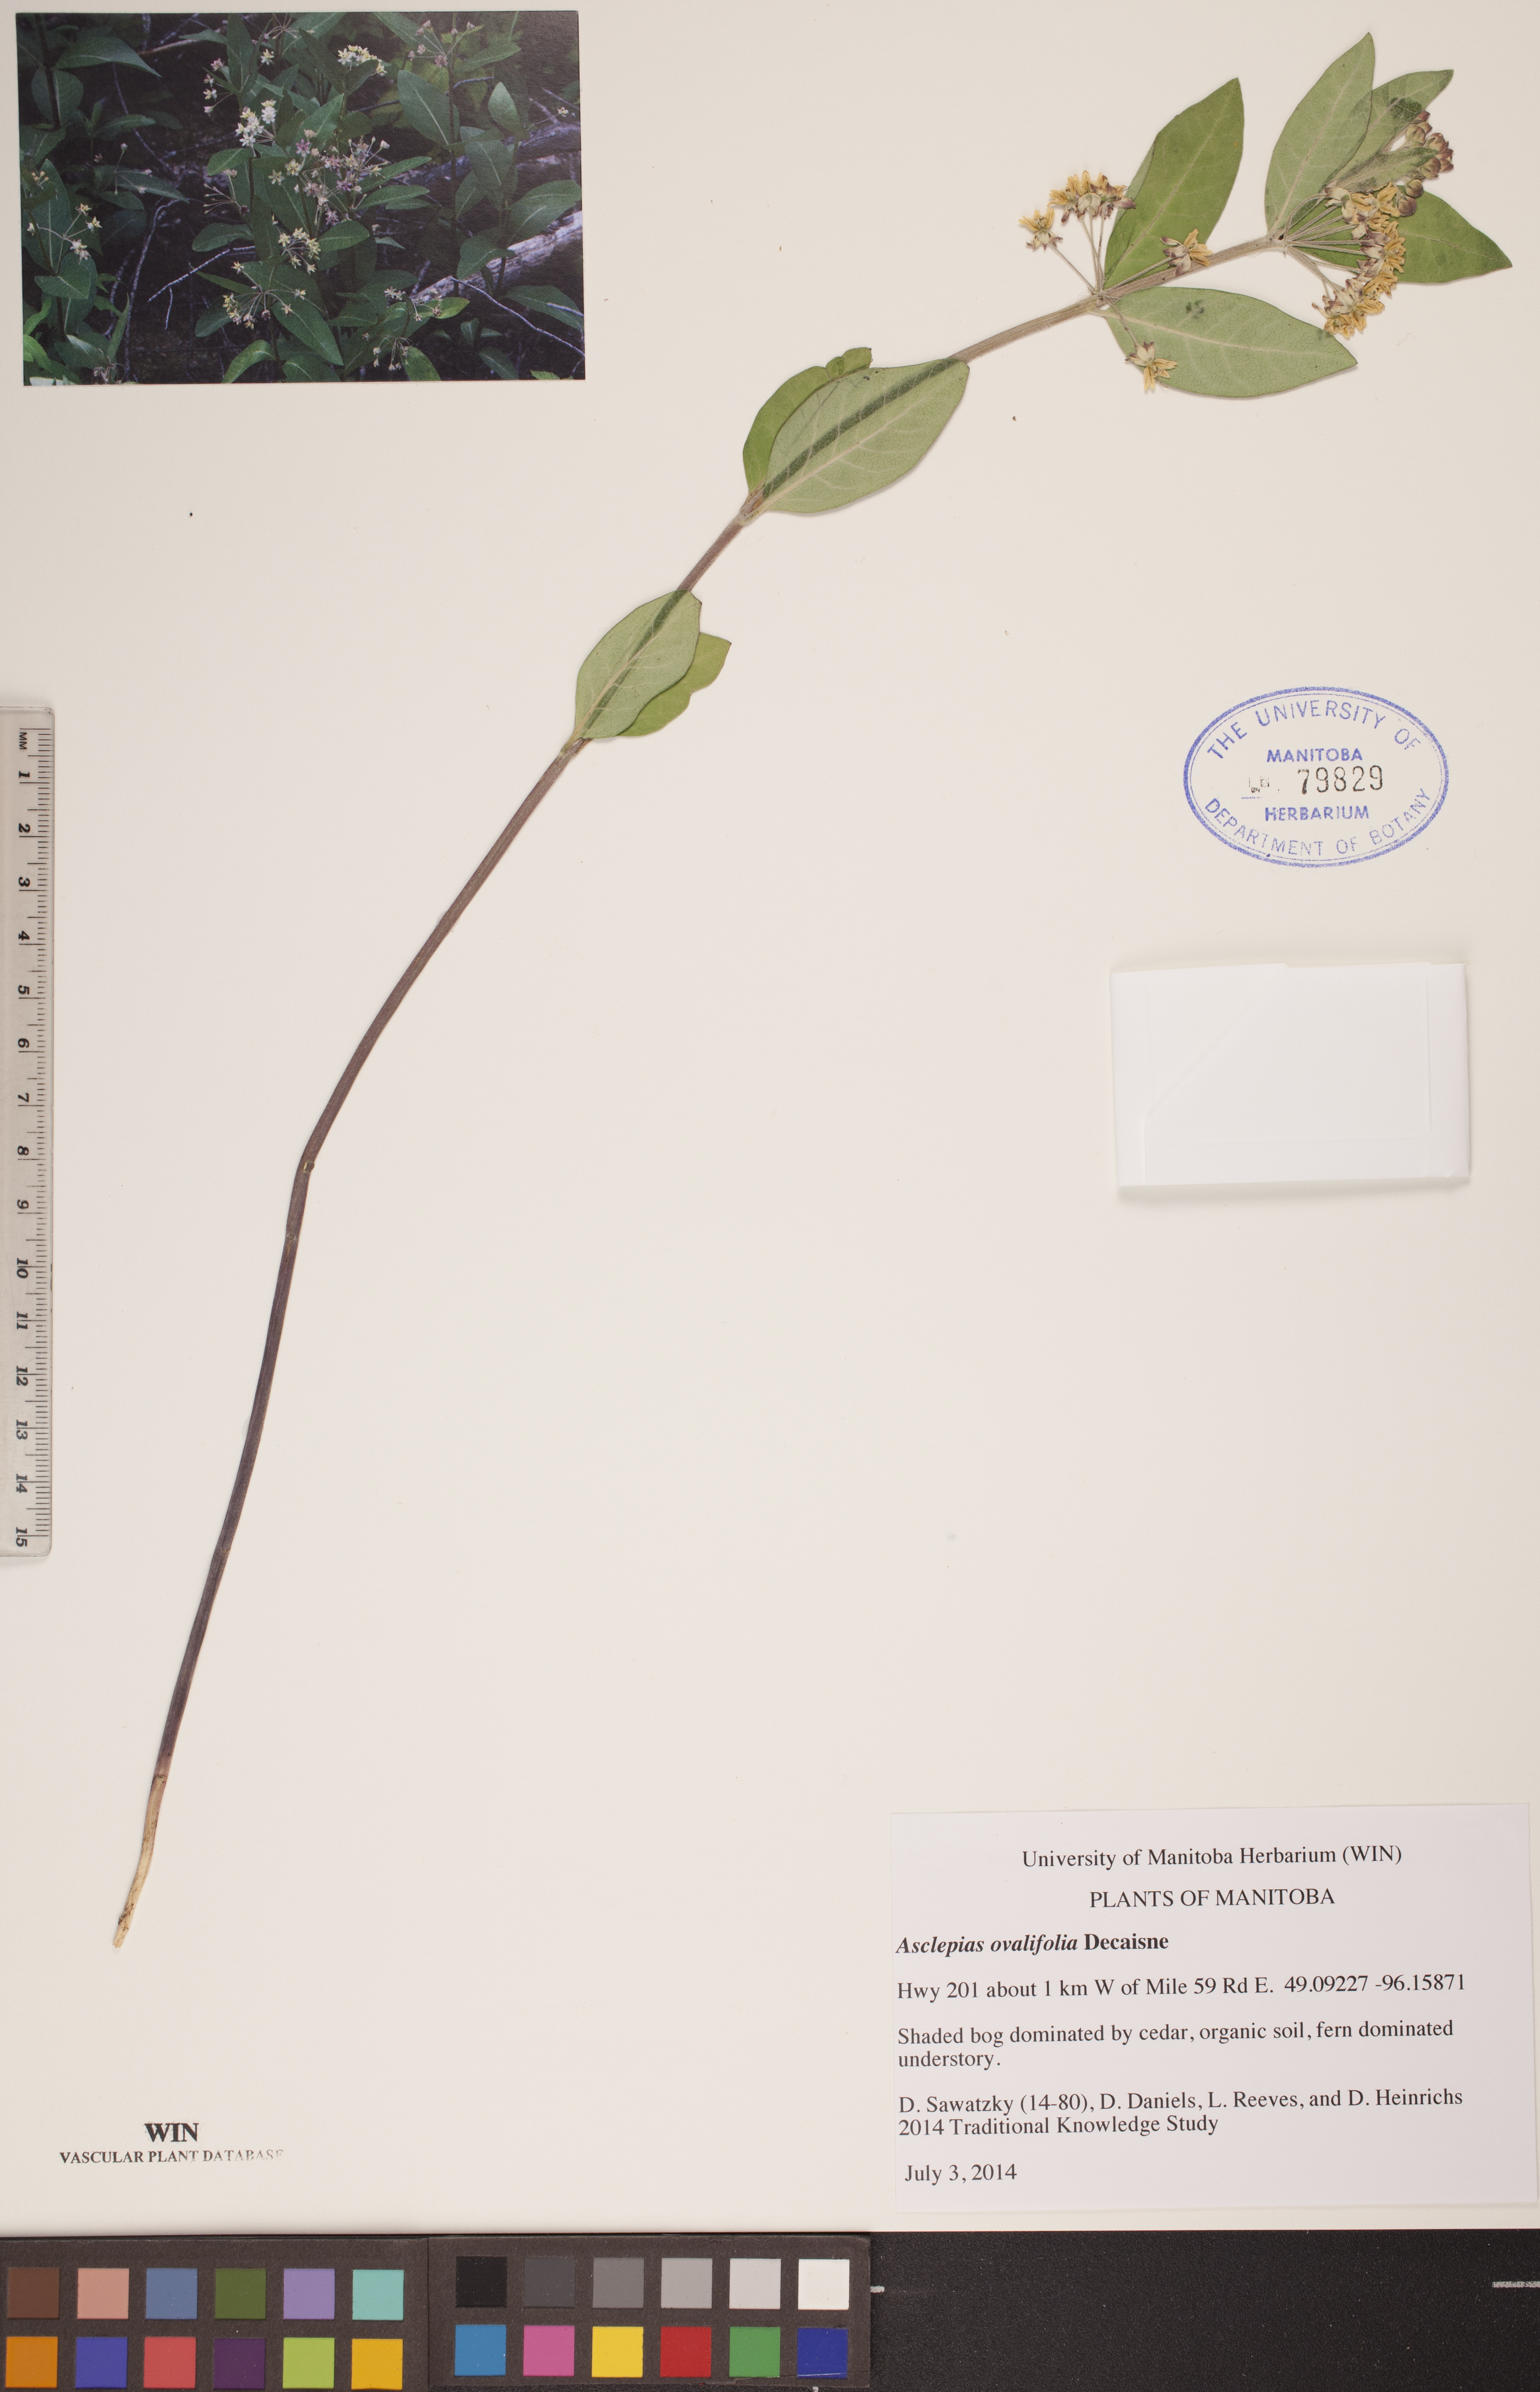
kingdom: Plantae
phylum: Tracheophyta
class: Magnoliopsida
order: Gentianales
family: Apocynaceae
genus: Asclepias
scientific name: Asclepias ovalifolia
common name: Dwarf milkweed
